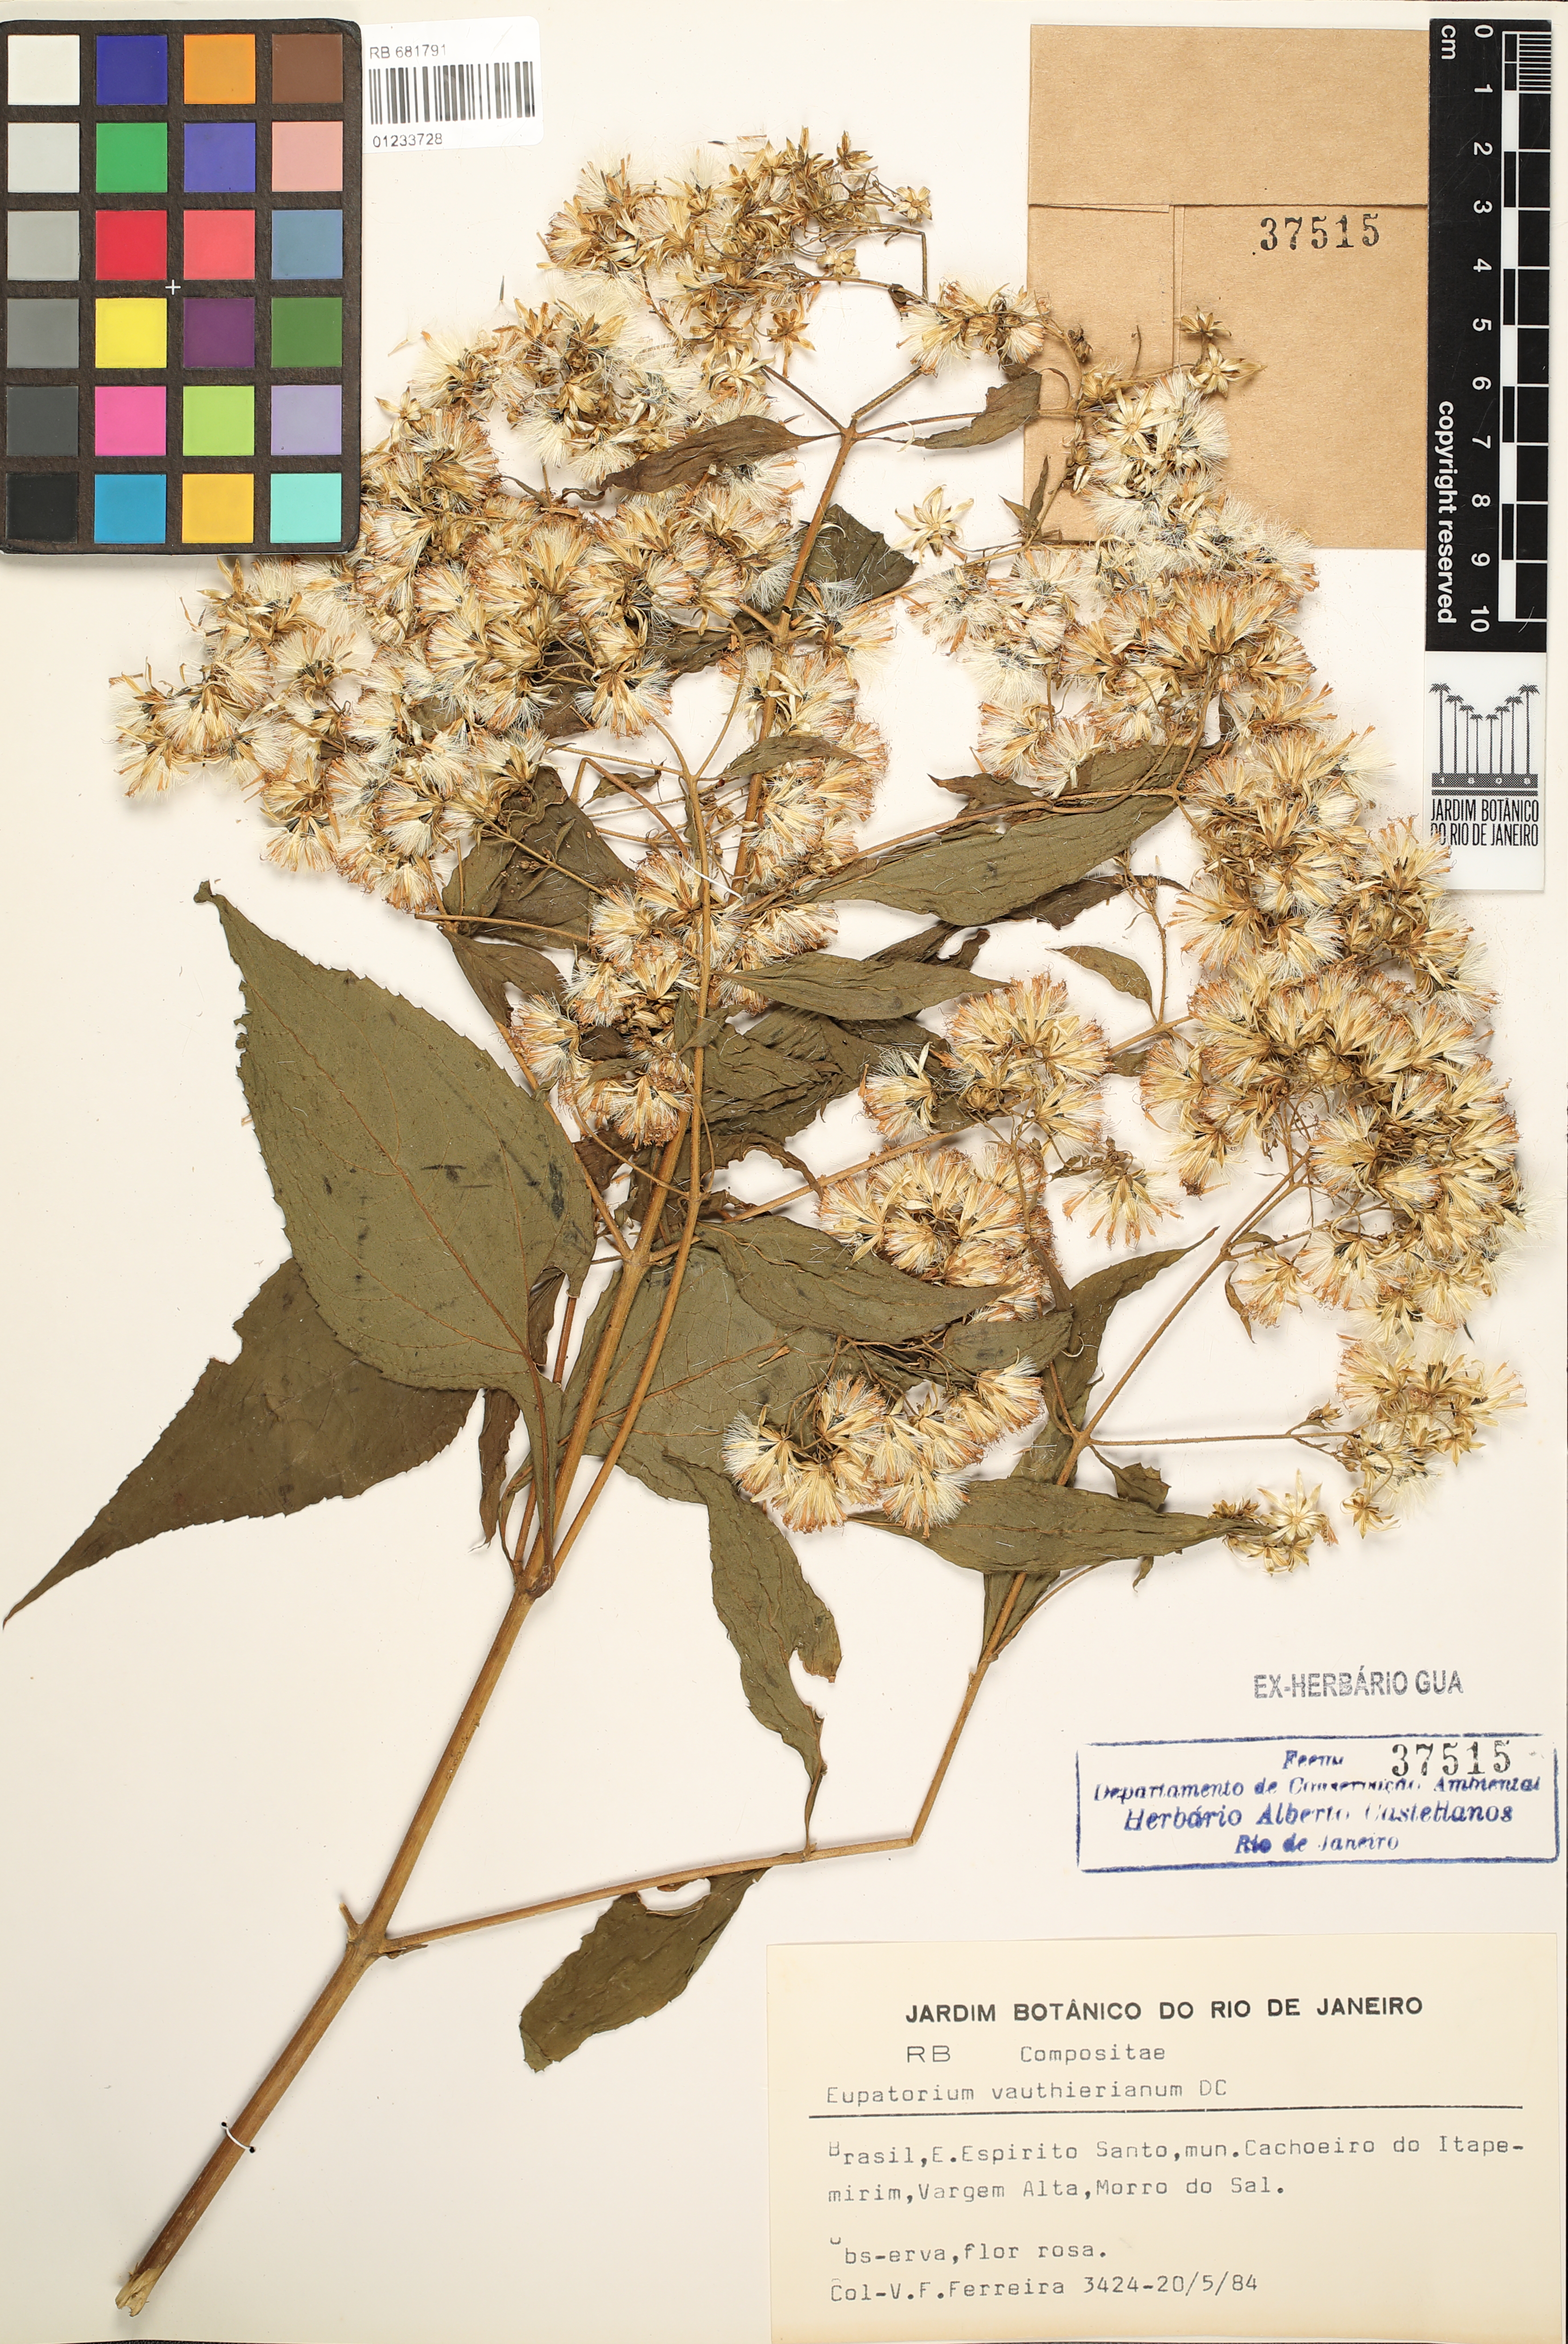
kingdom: Plantae
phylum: Tracheophyta
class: Magnoliopsida
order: Asterales
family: Asteraceae
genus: Heterocondylus
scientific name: Heterocondylus alatus
